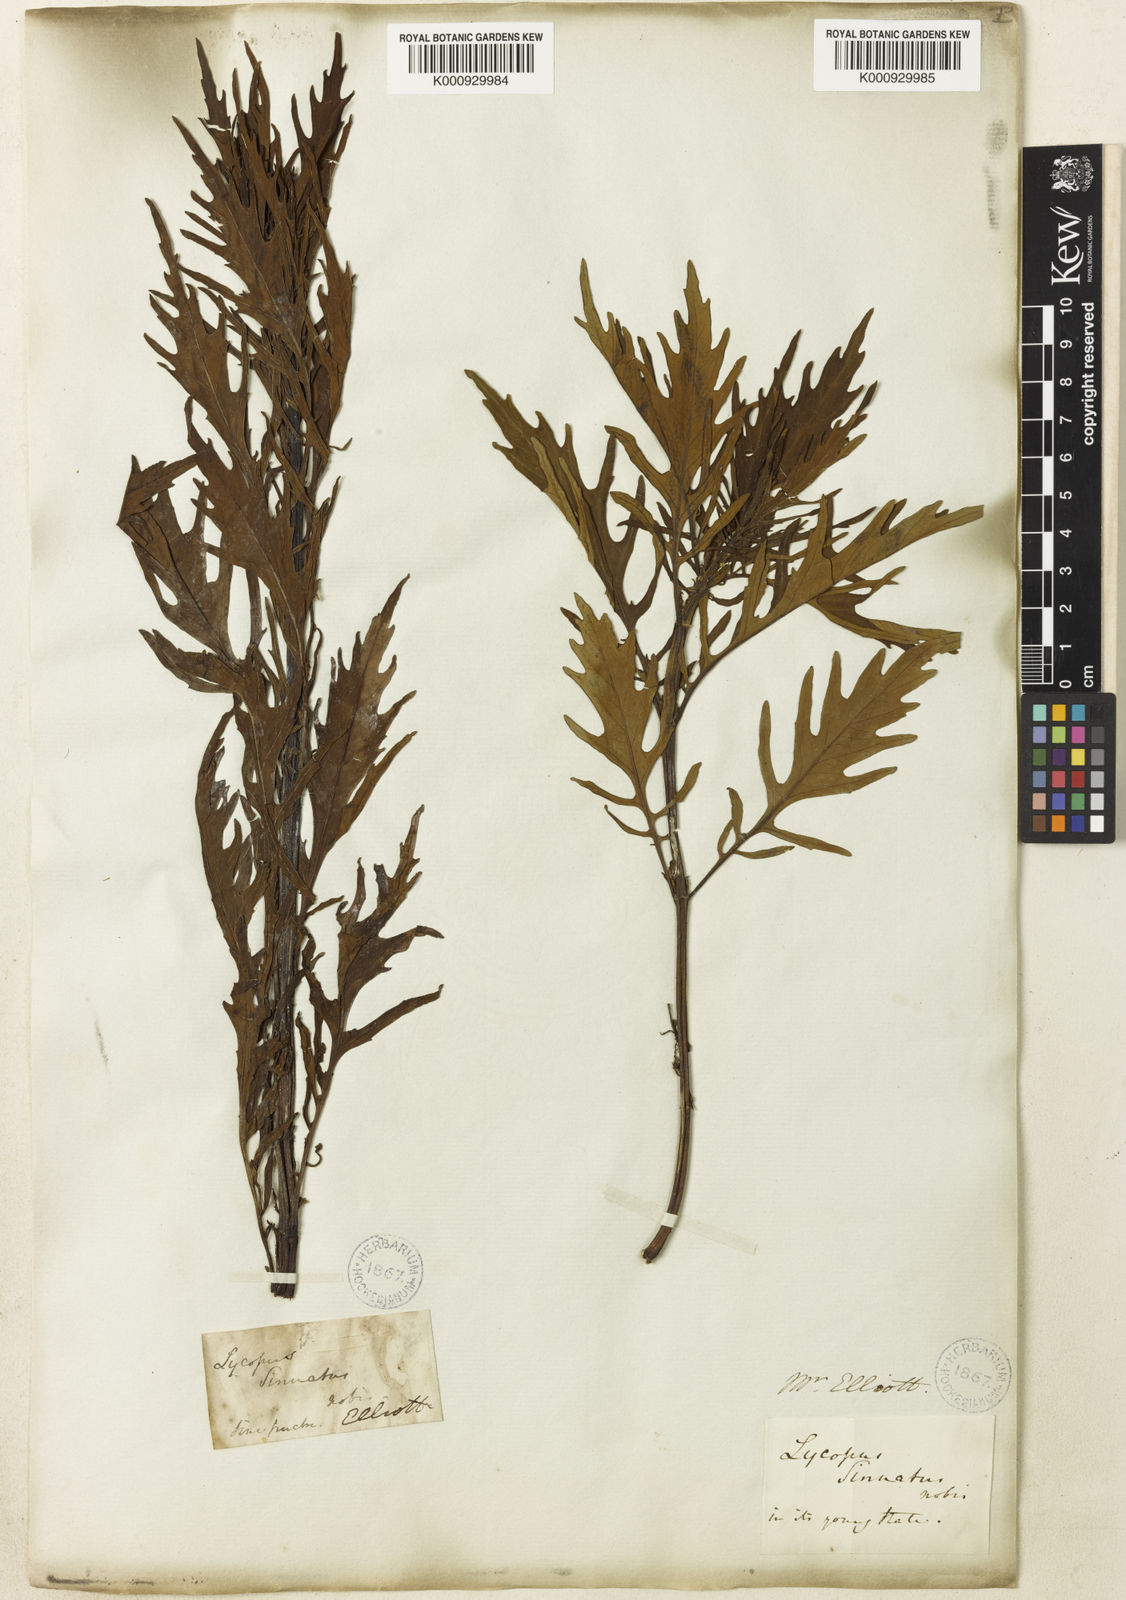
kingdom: Plantae
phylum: Tracheophyta
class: Magnoliopsida
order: Lamiales
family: Lamiaceae
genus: Lycopus
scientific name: Lycopus
